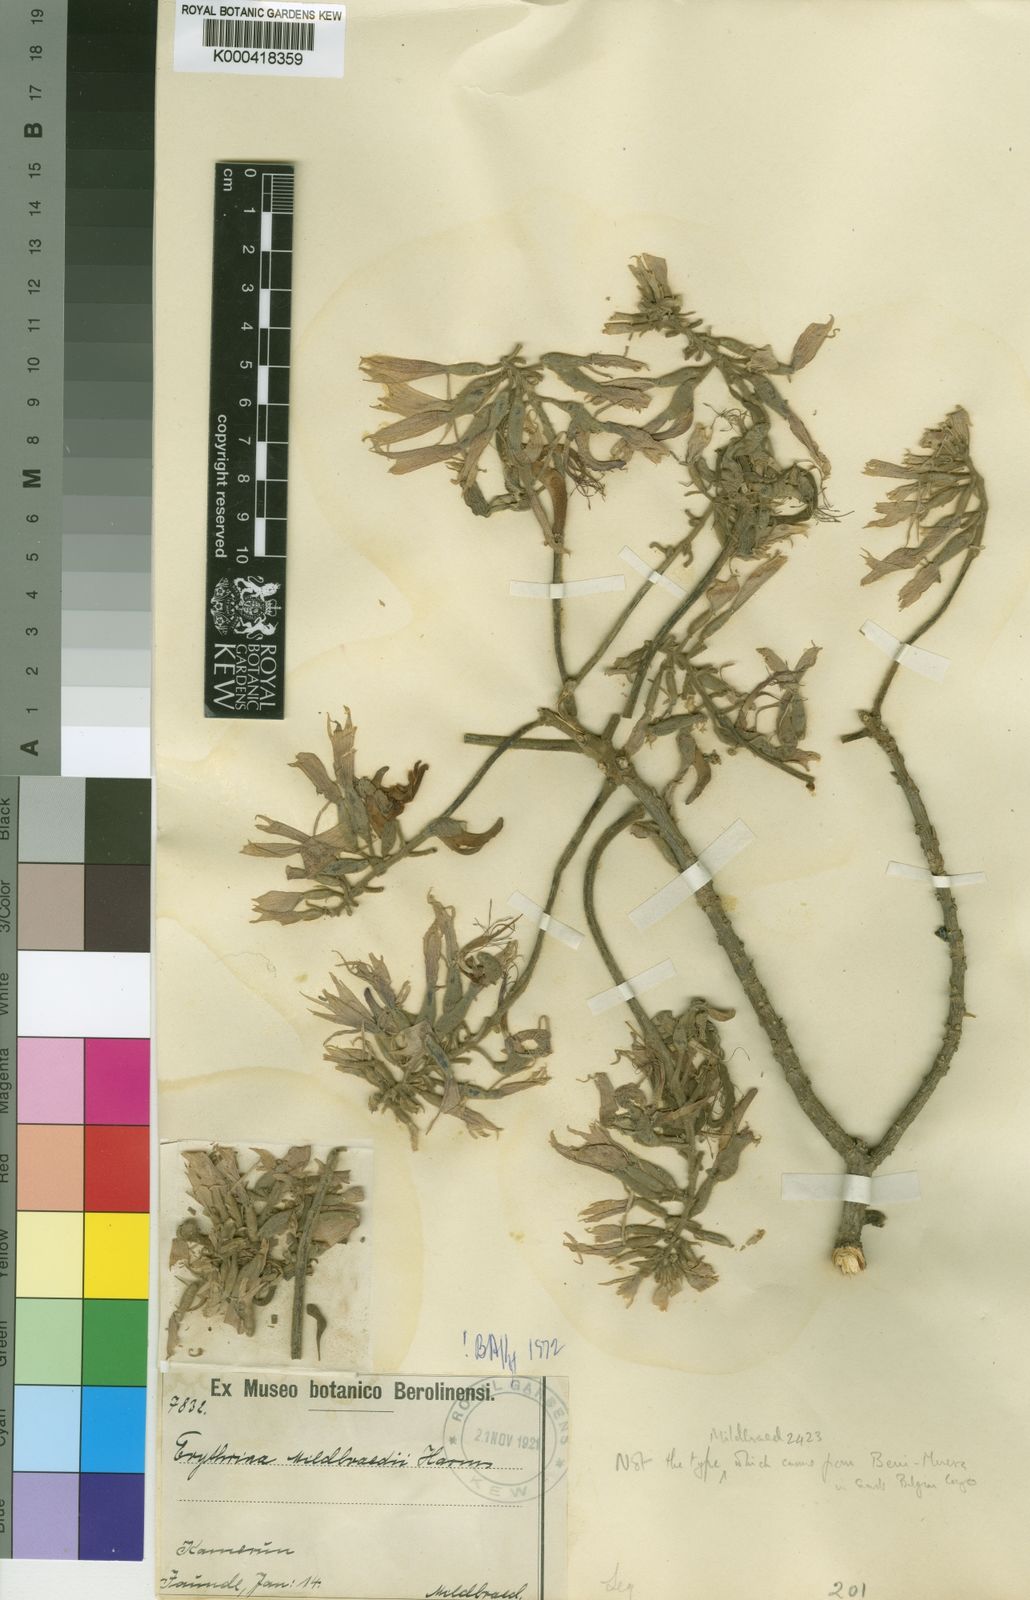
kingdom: Plantae
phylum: Tracheophyta
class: Magnoliopsida
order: Fabales
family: Fabaceae
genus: Erythrina
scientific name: Erythrina mildbraedii
